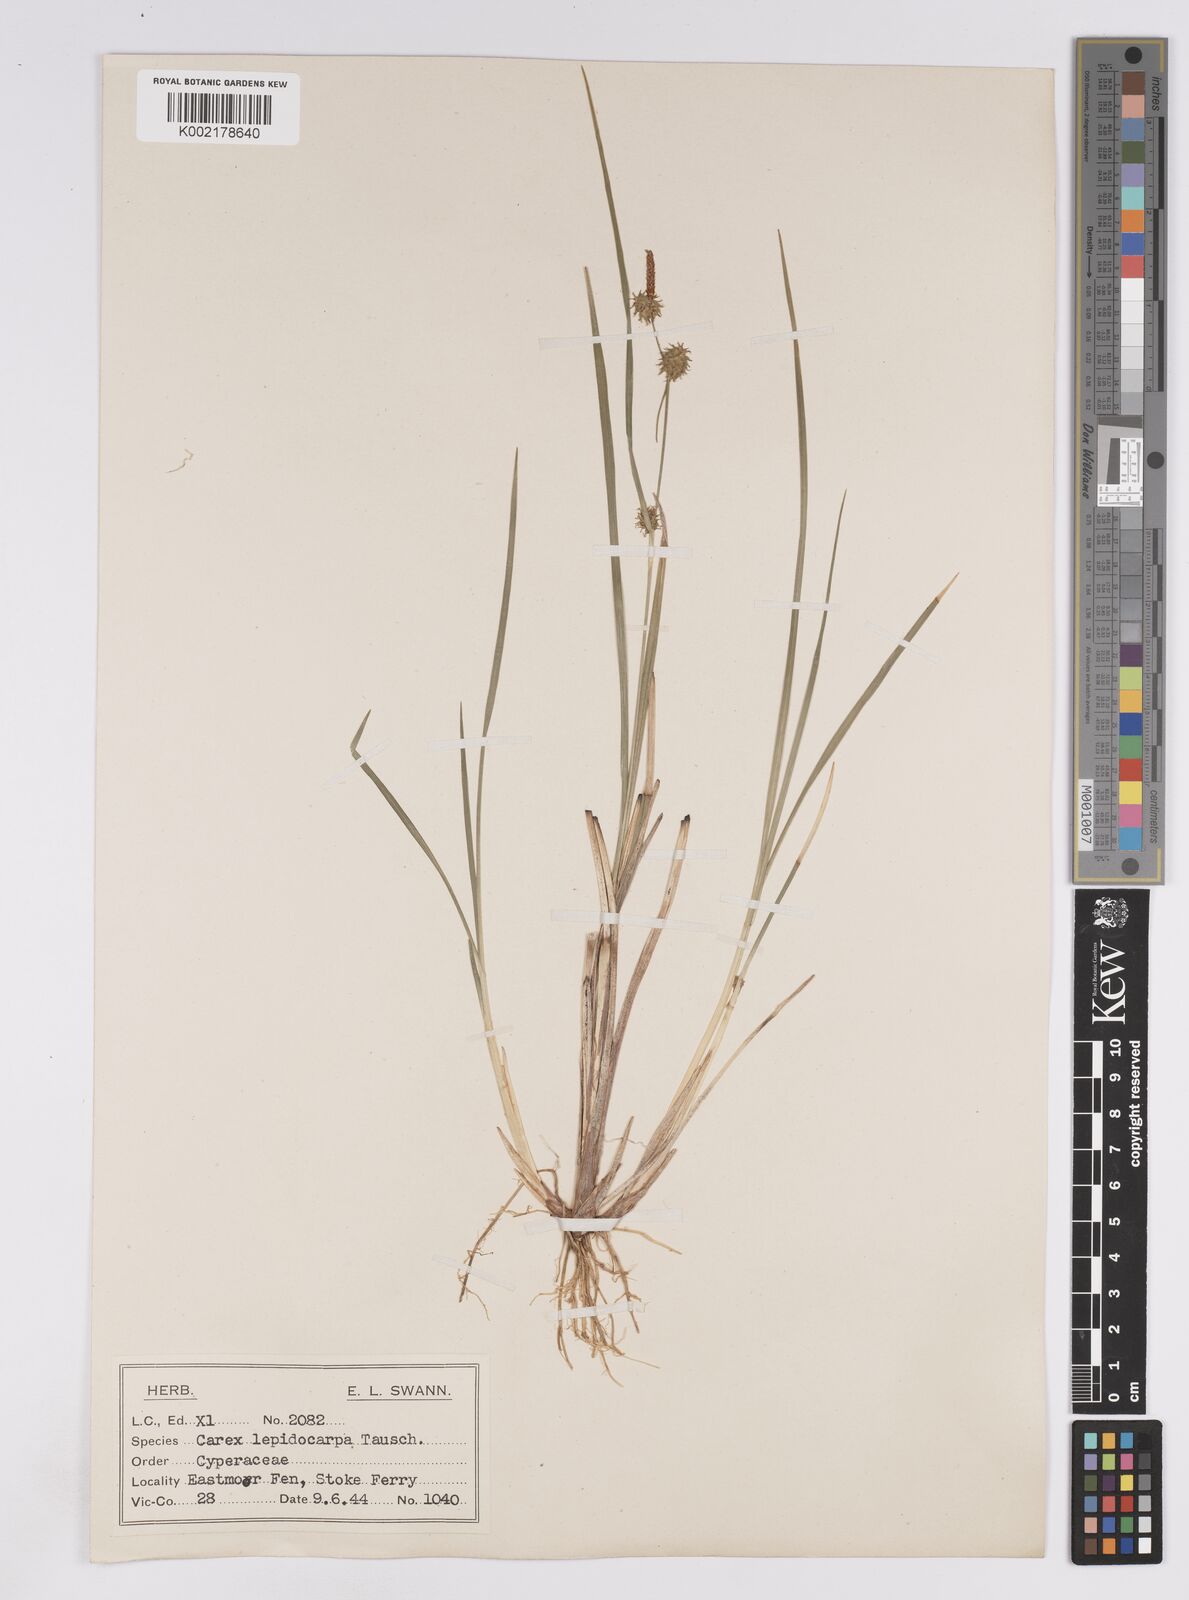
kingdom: Plantae
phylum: Tracheophyta
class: Liliopsida
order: Poales
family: Cyperaceae
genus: Carex
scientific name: Carex lepidocarpa
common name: Long-stalked yellow-sedge
